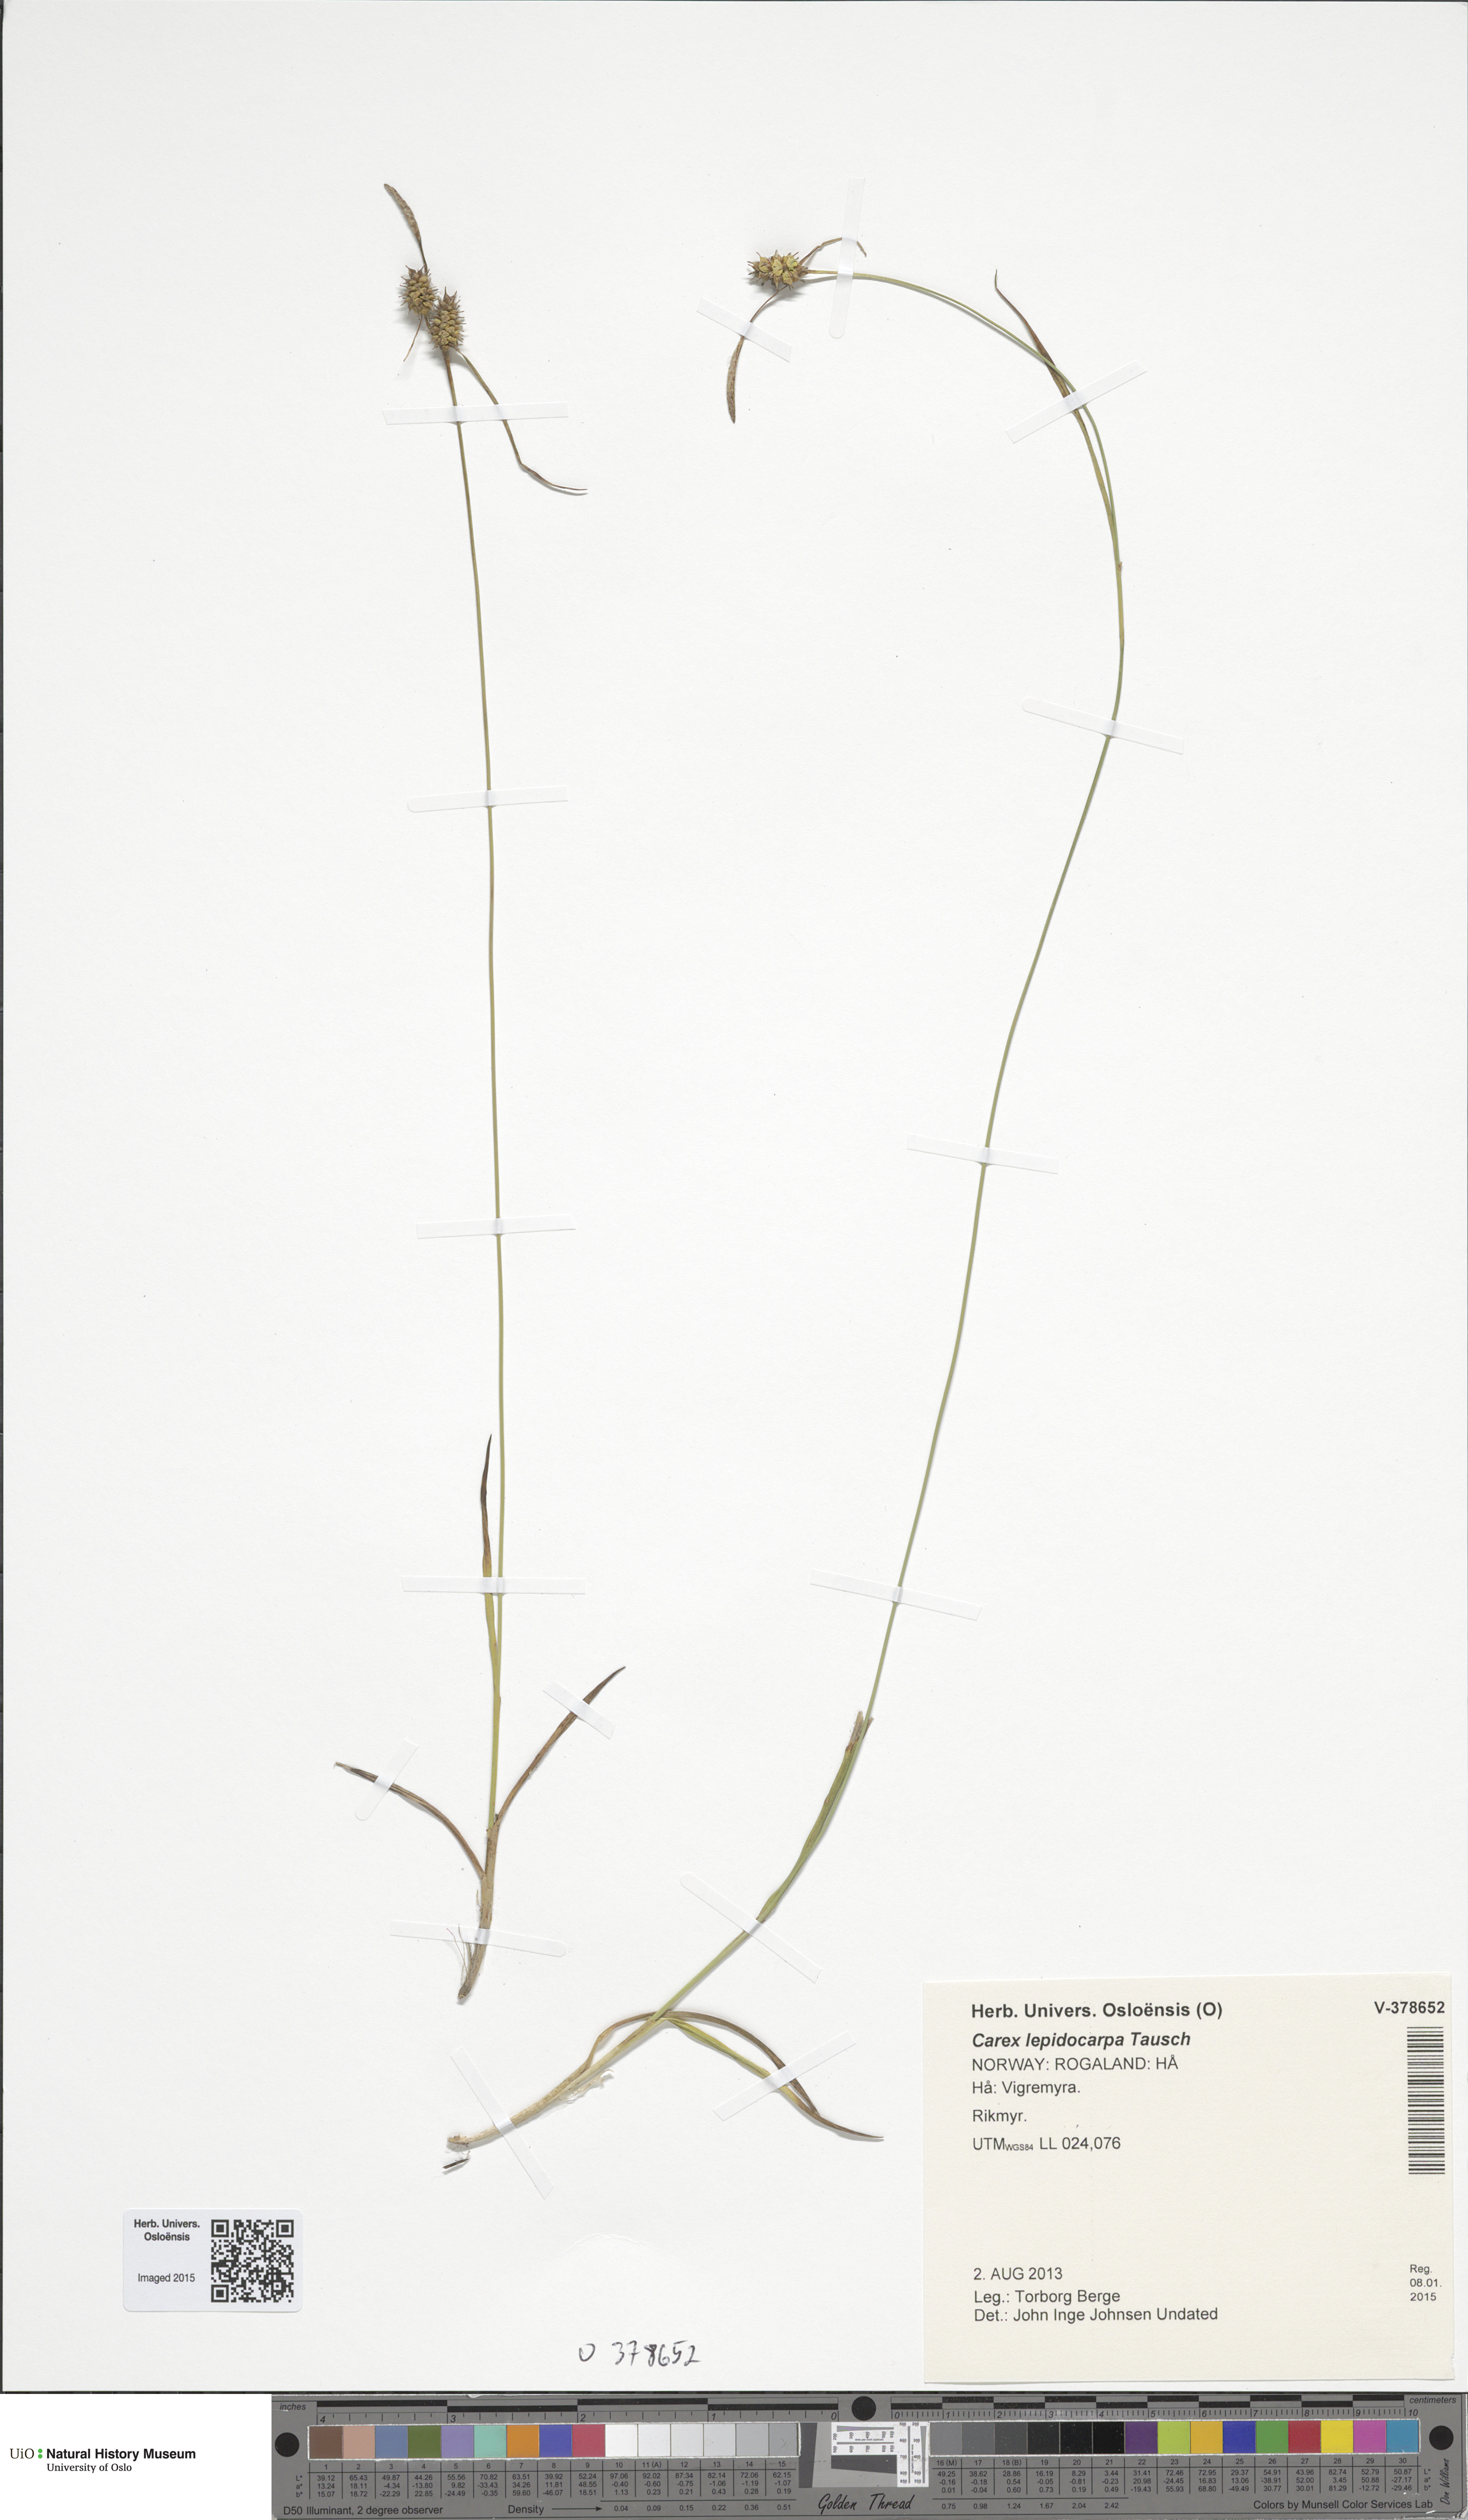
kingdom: Plantae
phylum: Tracheophyta
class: Liliopsida
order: Poales
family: Cyperaceae
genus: Carex
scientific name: Carex lepidocarpa
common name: Long-stalked yellow-sedge
